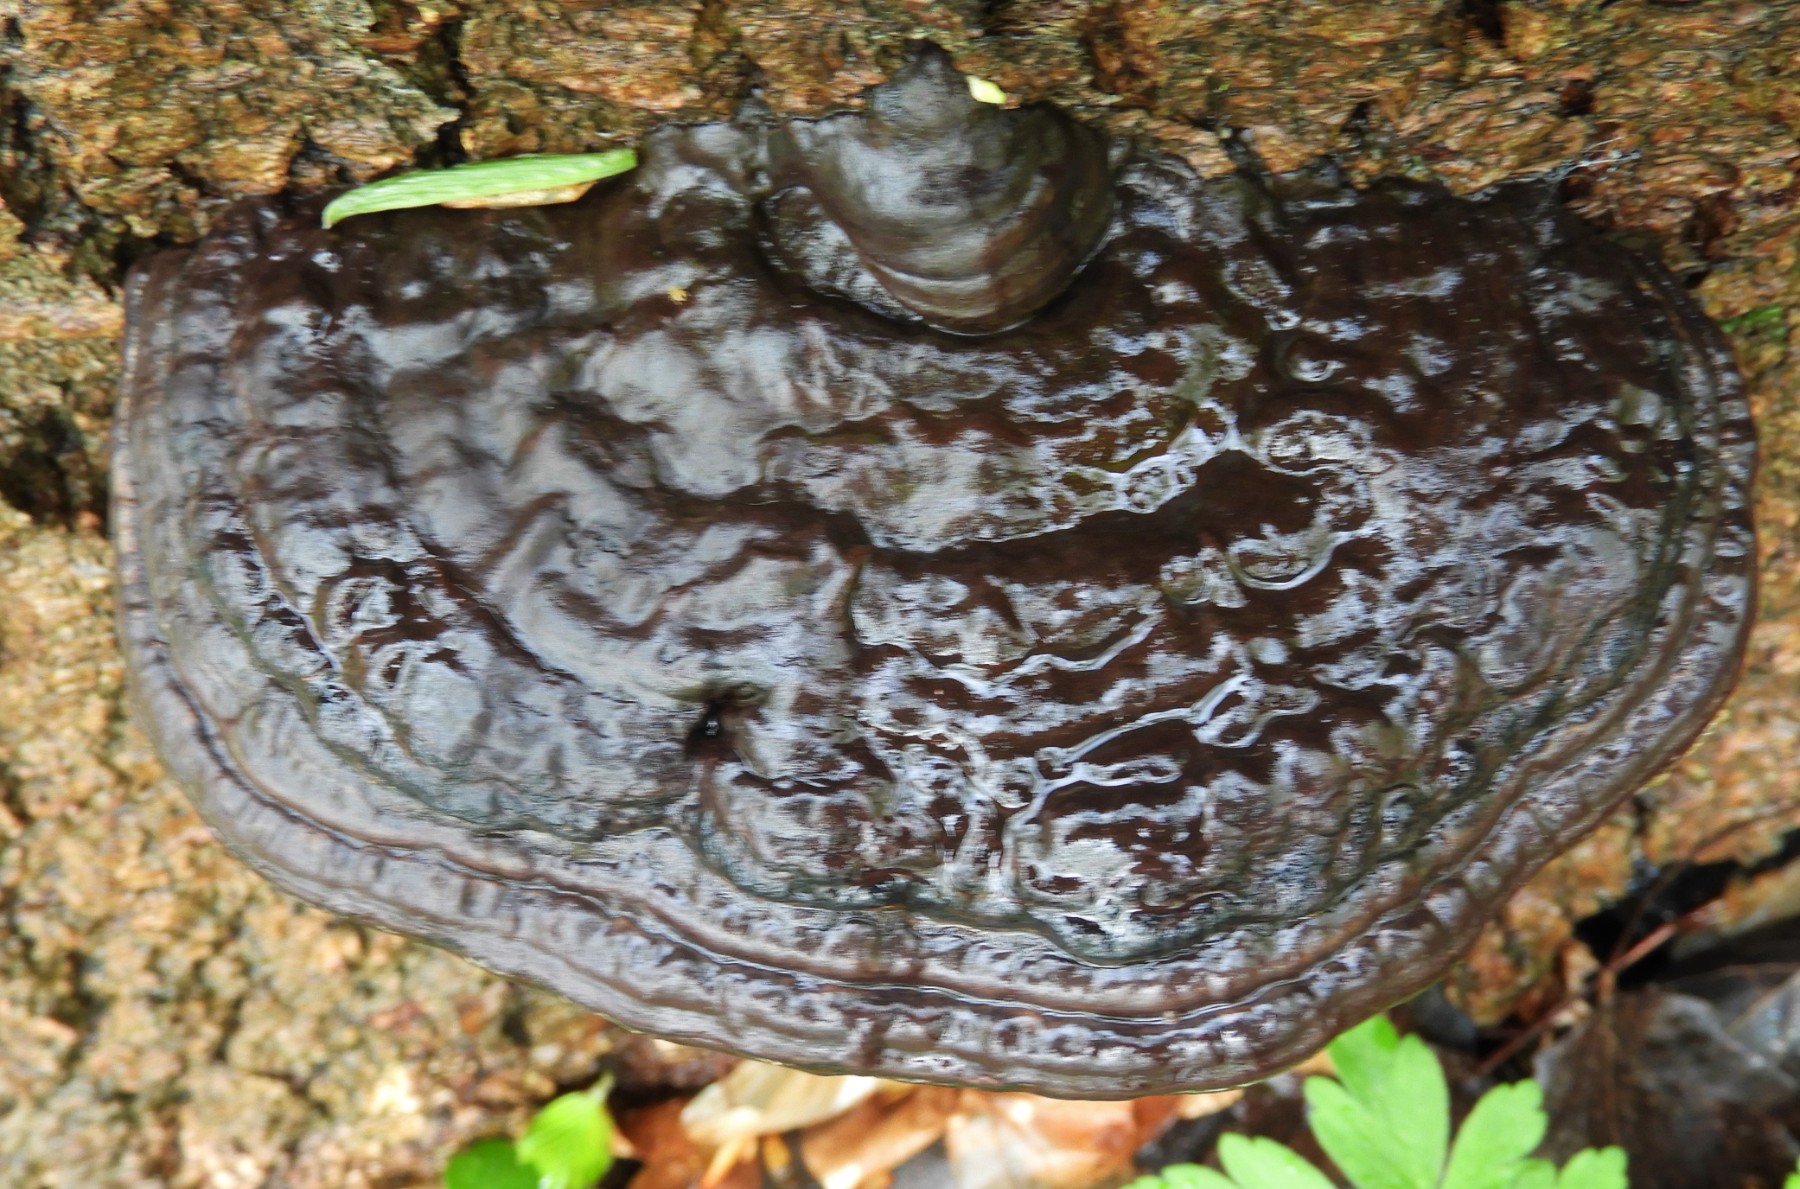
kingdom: Fungi
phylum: Basidiomycota
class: Agaricomycetes
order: Polyporales
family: Polyporaceae
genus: Ganoderma
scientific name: Ganoderma applanatum
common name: flad lakporesvamp
